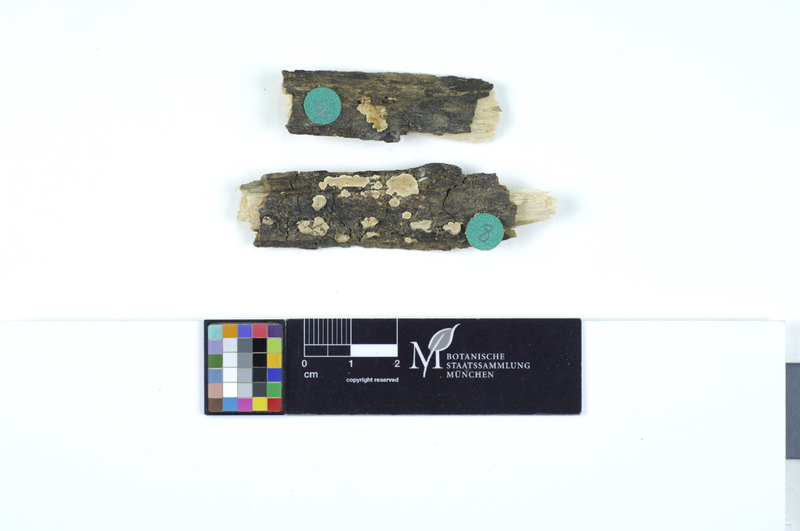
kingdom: Fungi
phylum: Basidiomycota
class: Agaricomycetes
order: Polyporales
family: Steccherinaceae
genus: Antrodiella
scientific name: Antrodiella onychoides
